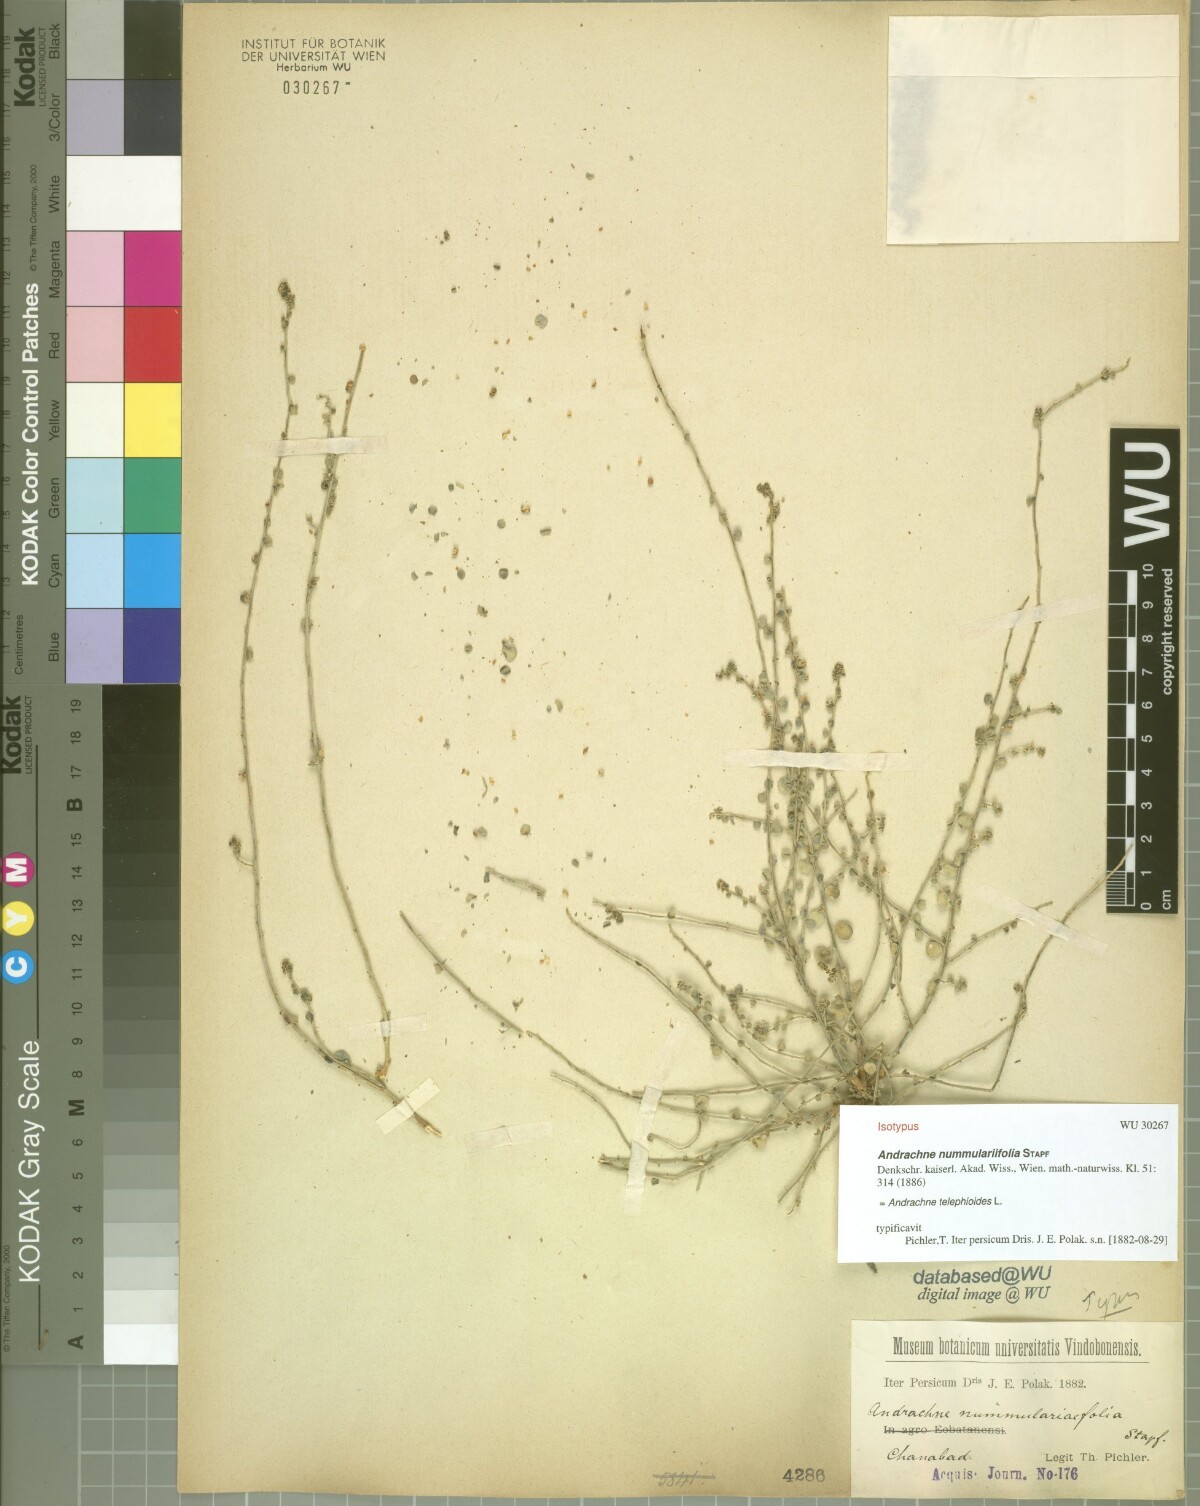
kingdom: Plantae
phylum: Tracheophyta
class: Magnoliopsida
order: Malpighiales
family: Phyllanthaceae
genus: Andrachne
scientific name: Andrachne telephioides
